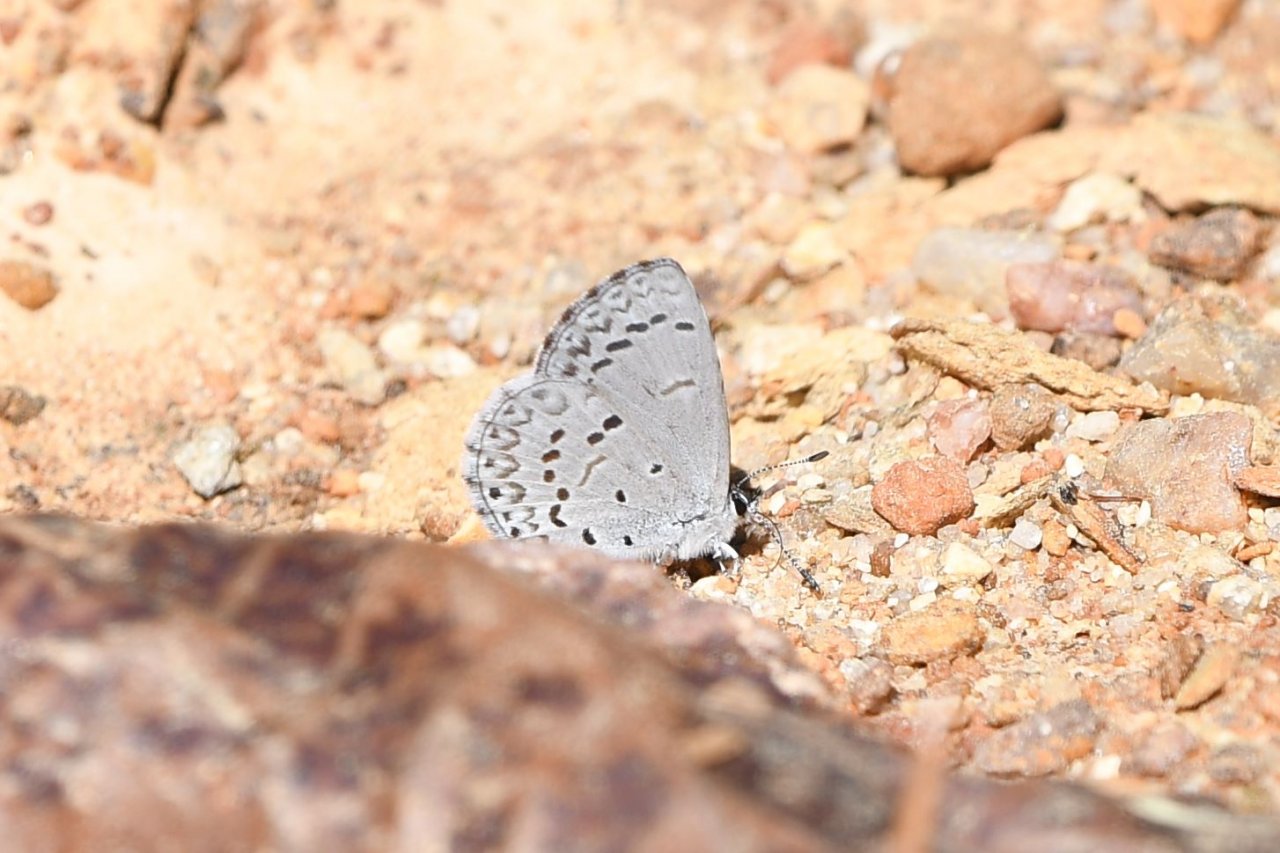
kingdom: Animalia
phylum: Arthropoda
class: Insecta
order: Lepidoptera
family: Lycaenidae
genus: Cyaniris
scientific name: Cyaniris neglecta
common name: Summer Azure
